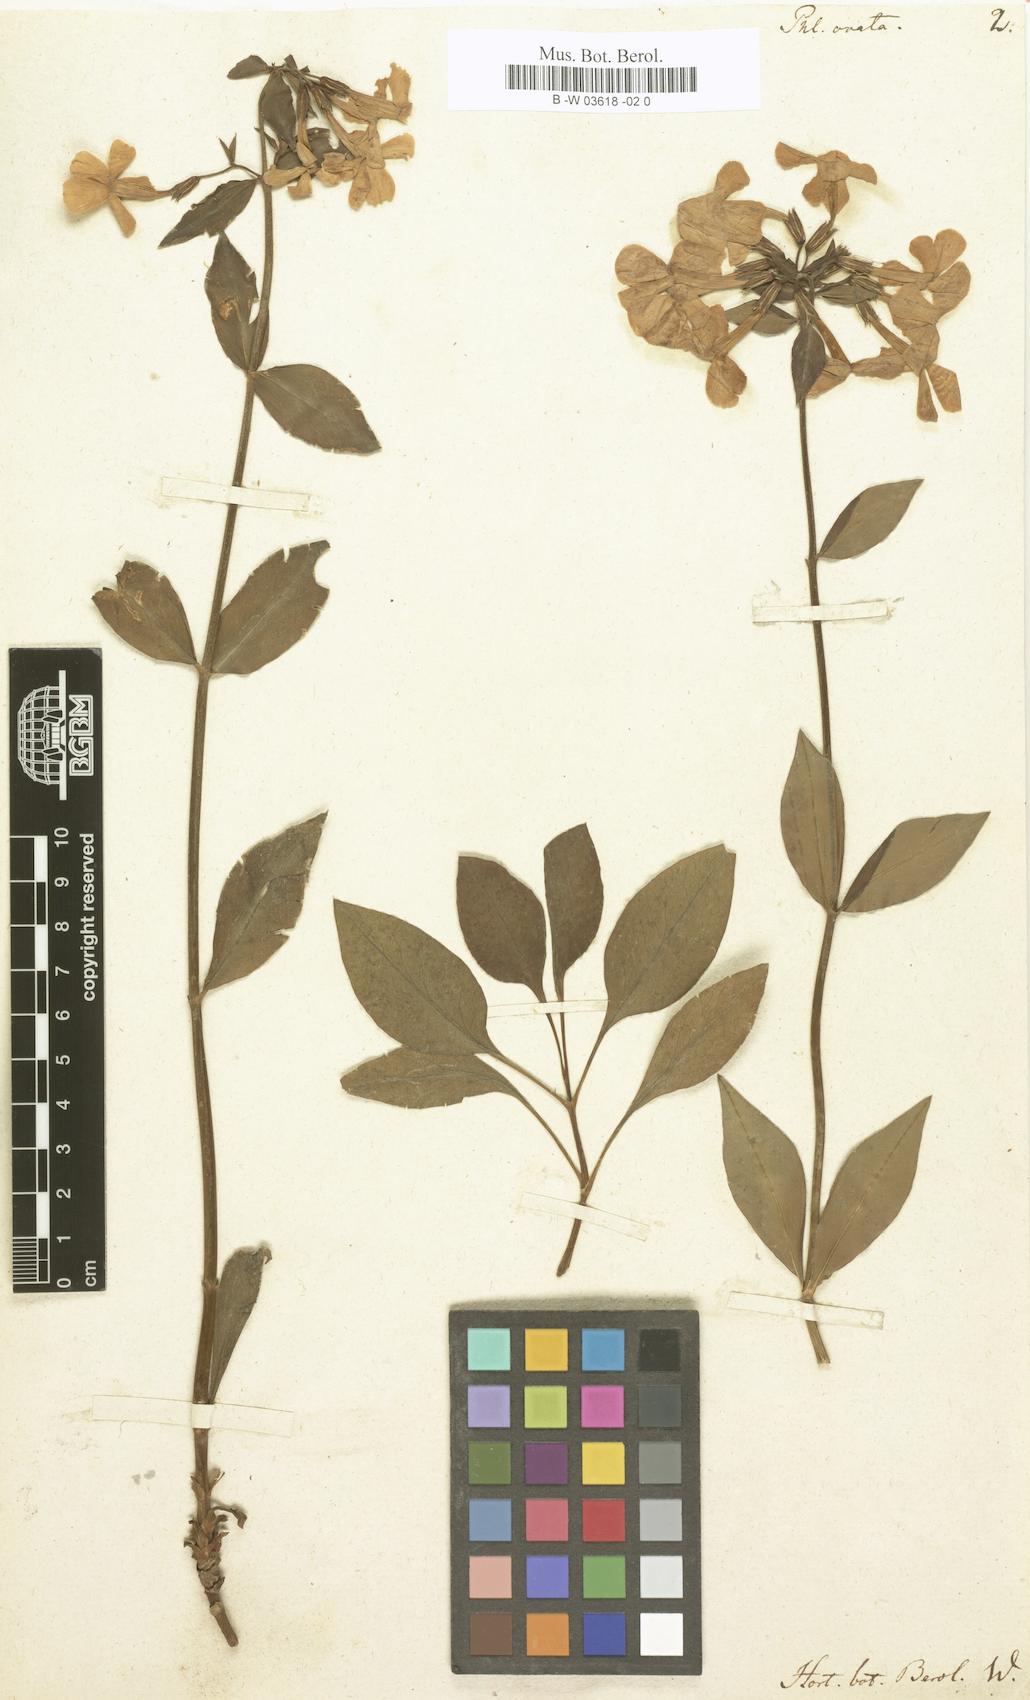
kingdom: Plantae
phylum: Tracheophyta
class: Magnoliopsida
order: Ericales
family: Polemoniaceae
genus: Phlox
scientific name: Phlox ovata
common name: Mountain phlox
